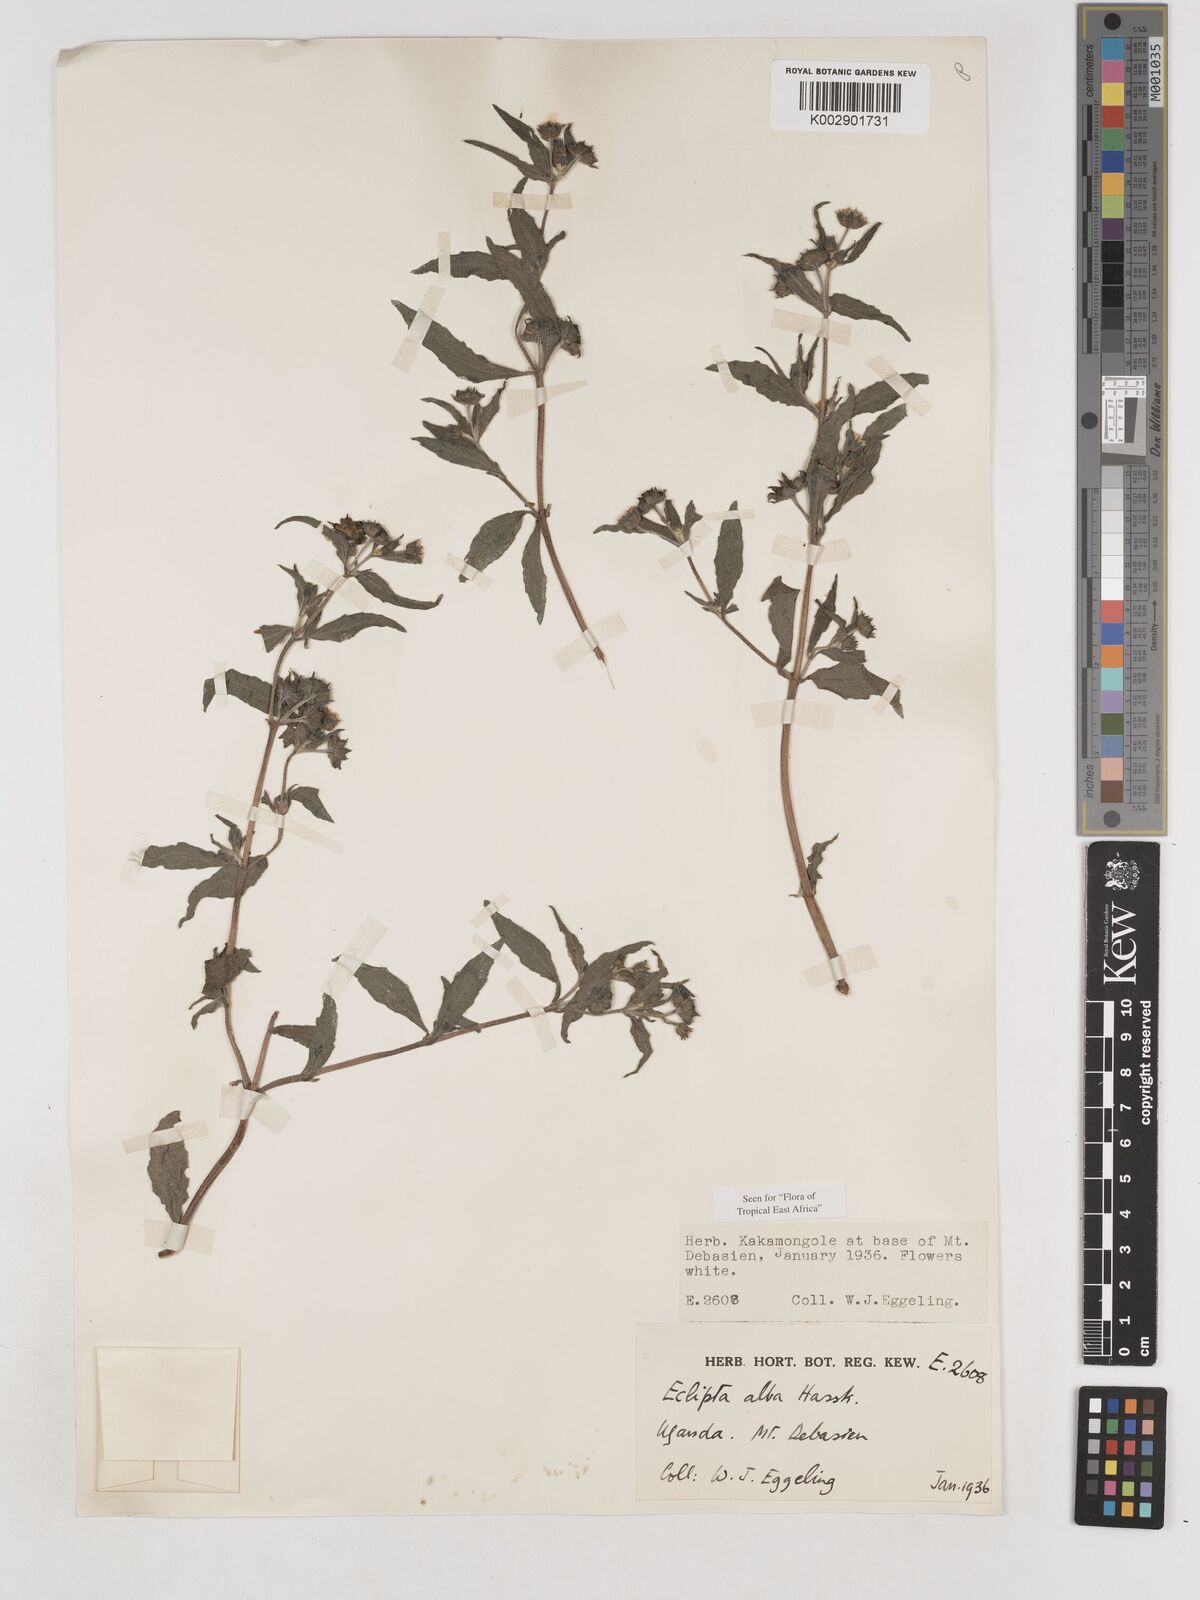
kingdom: Plantae
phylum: Tracheophyta
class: Magnoliopsida
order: Asterales
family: Asteraceae
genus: Eclipta
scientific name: Eclipta alba
